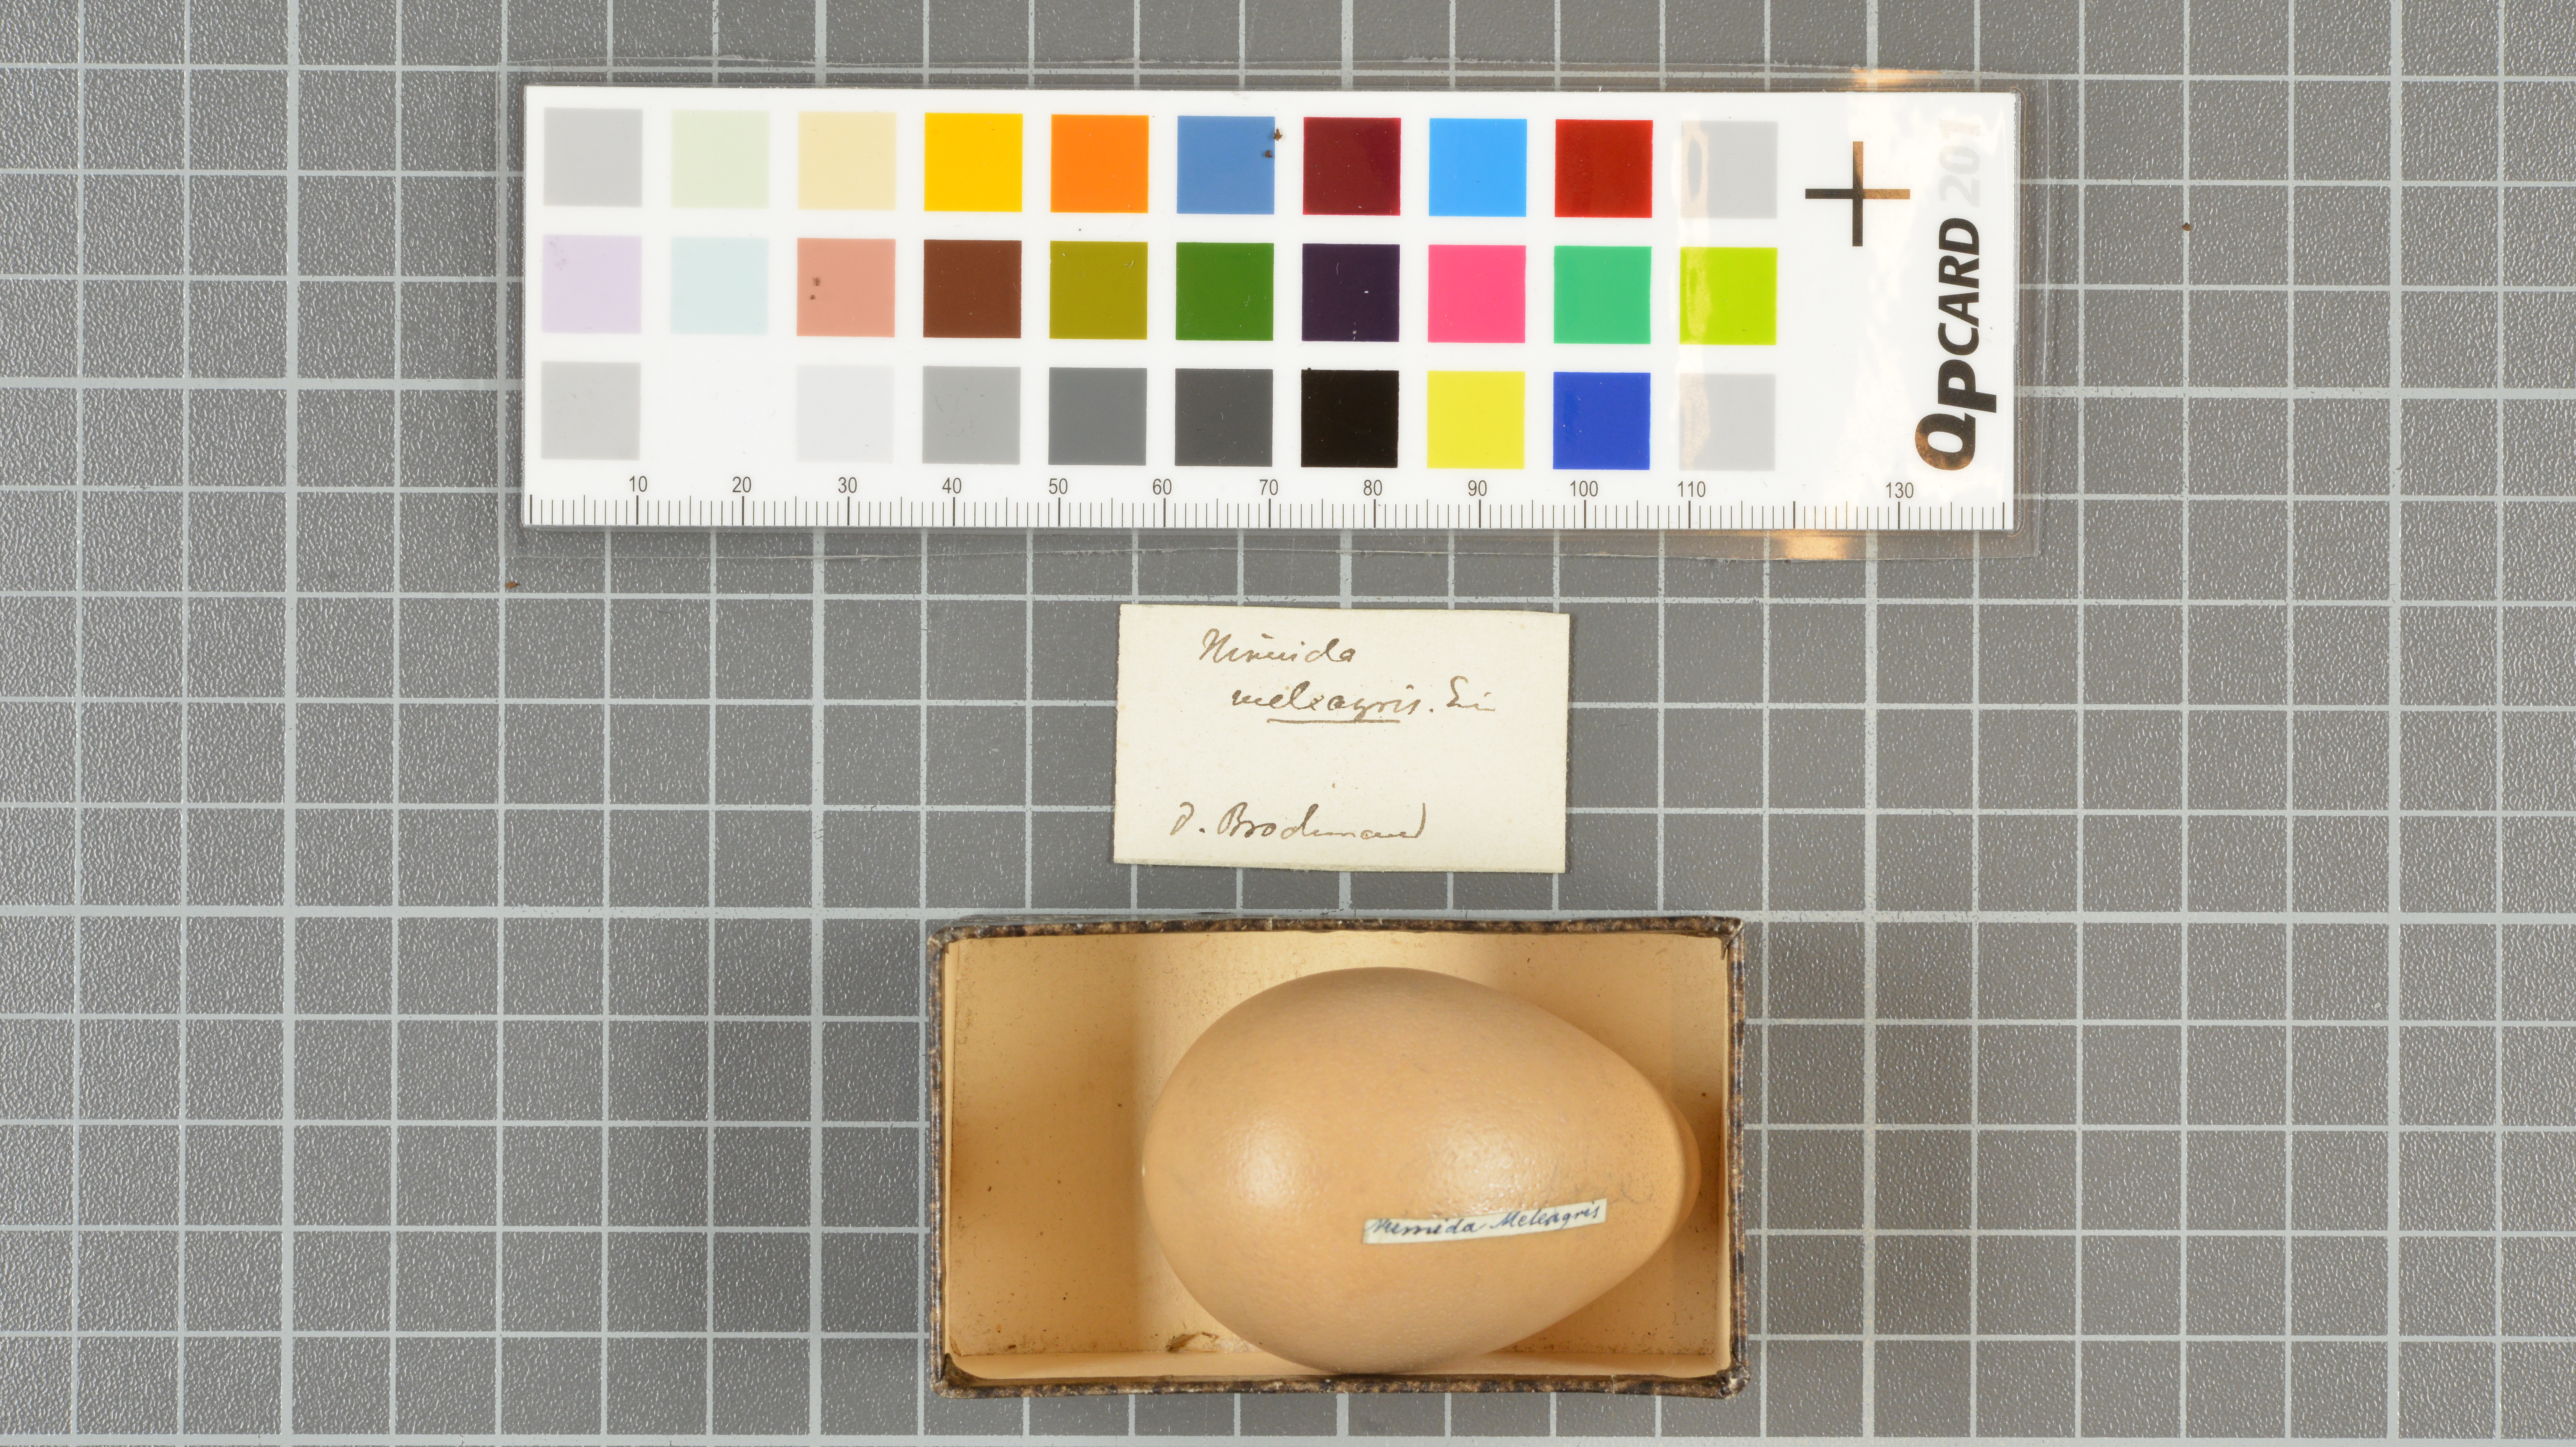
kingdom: Animalia
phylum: Chordata
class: Aves
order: Galliformes
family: Numididae
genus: Numida
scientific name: Numida meleagris
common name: Helmeted guineafowl
